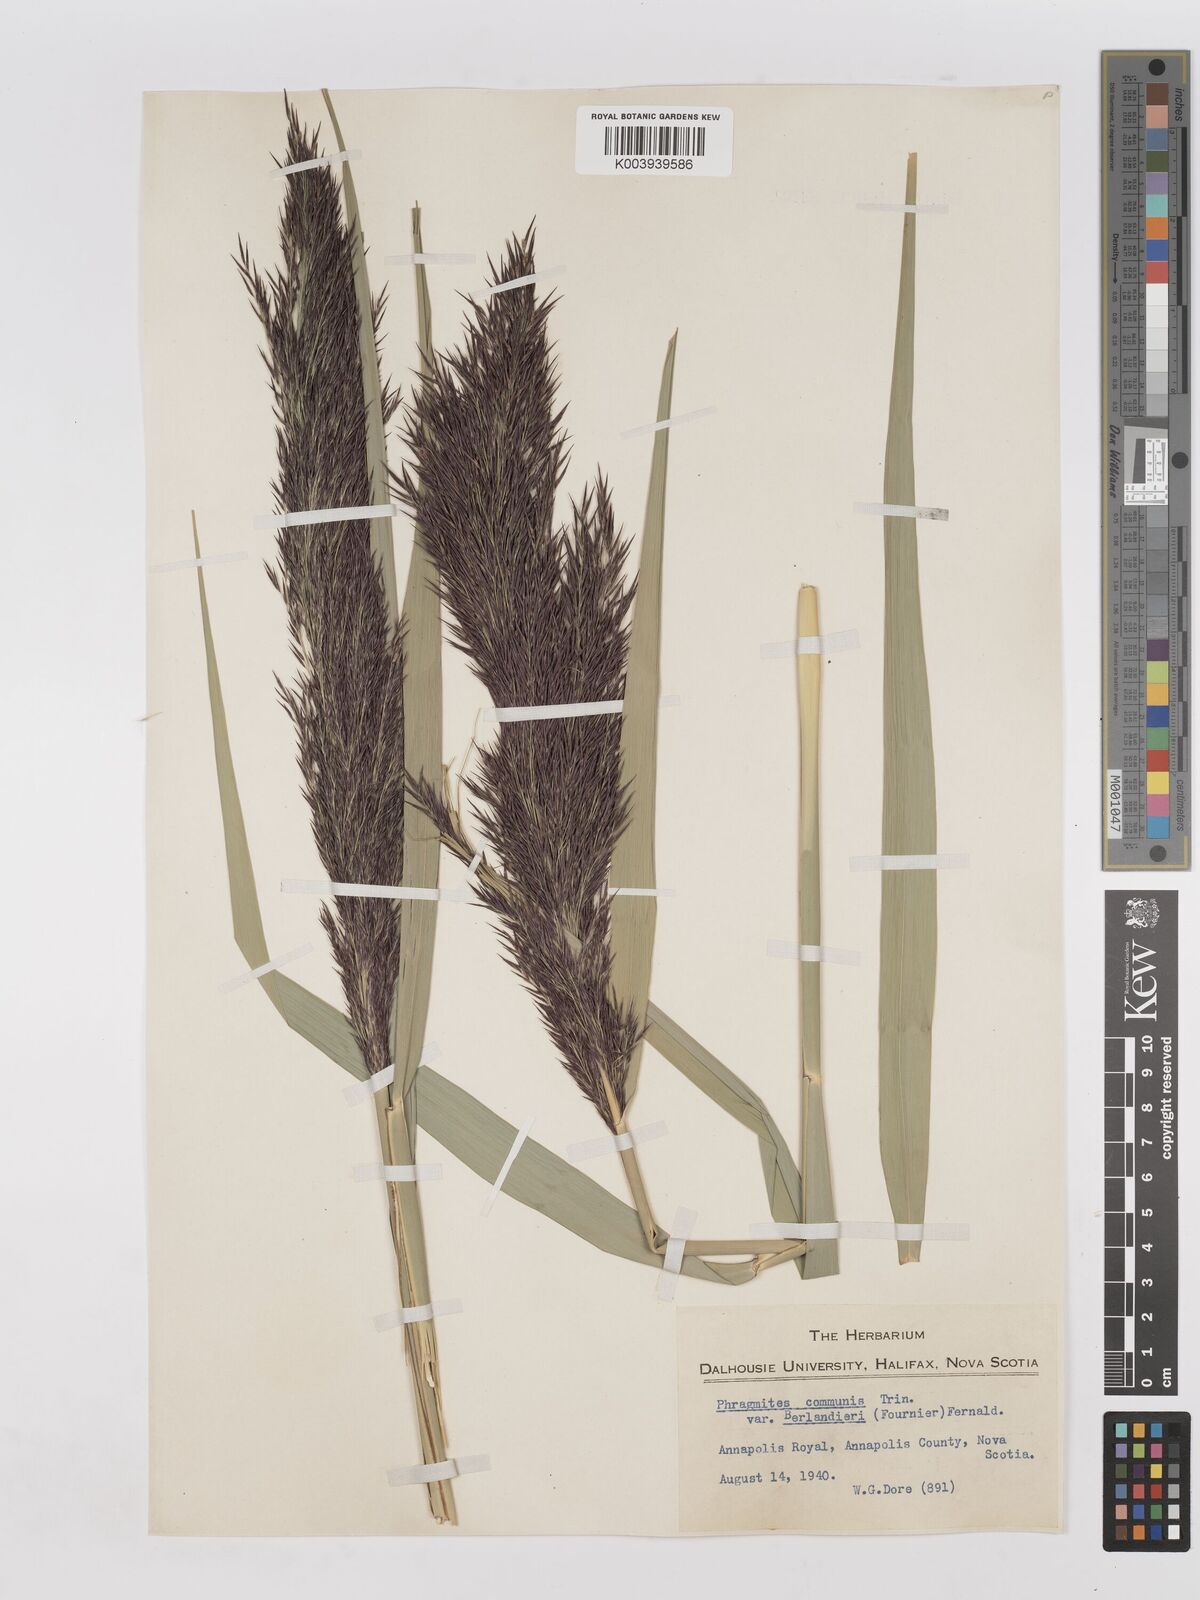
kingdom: Plantae
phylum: Tracheophyta
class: Liliopsida
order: Poales
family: Poaceae
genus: Phragmites
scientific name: Phragmites australis
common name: Common reed
